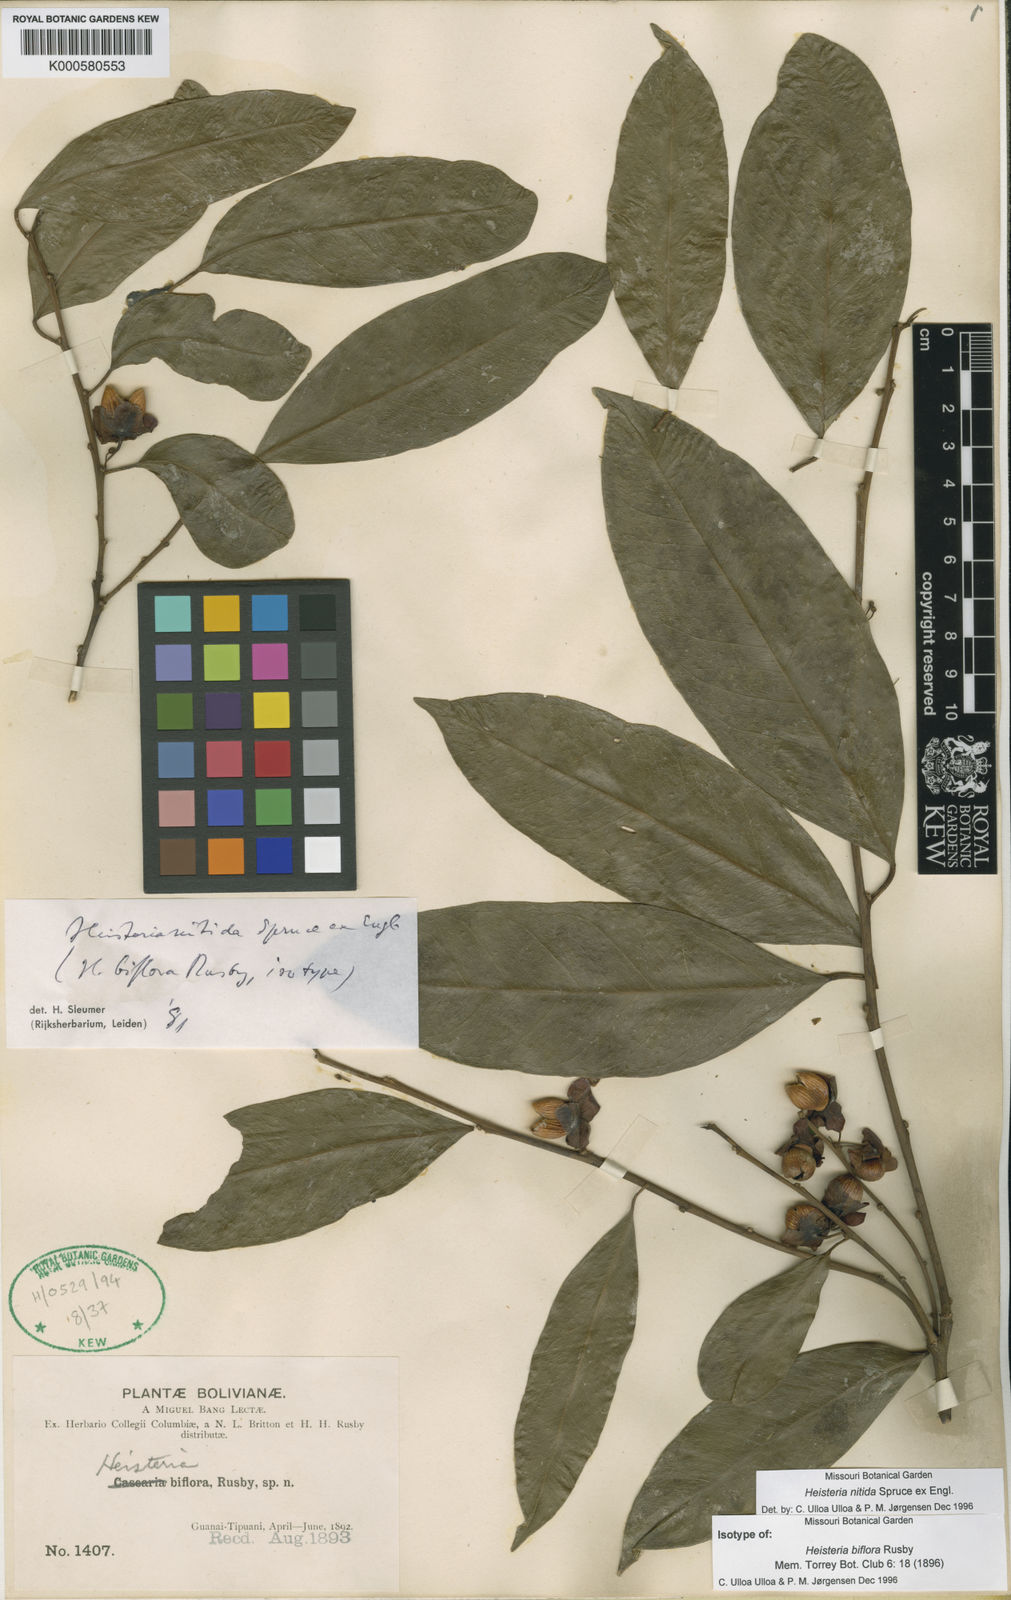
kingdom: Plantae
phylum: Tracheophyta
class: Magnoliopsida
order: Santalales
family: Erythropalaceae
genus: Heisteria
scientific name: Heisteria nitida
